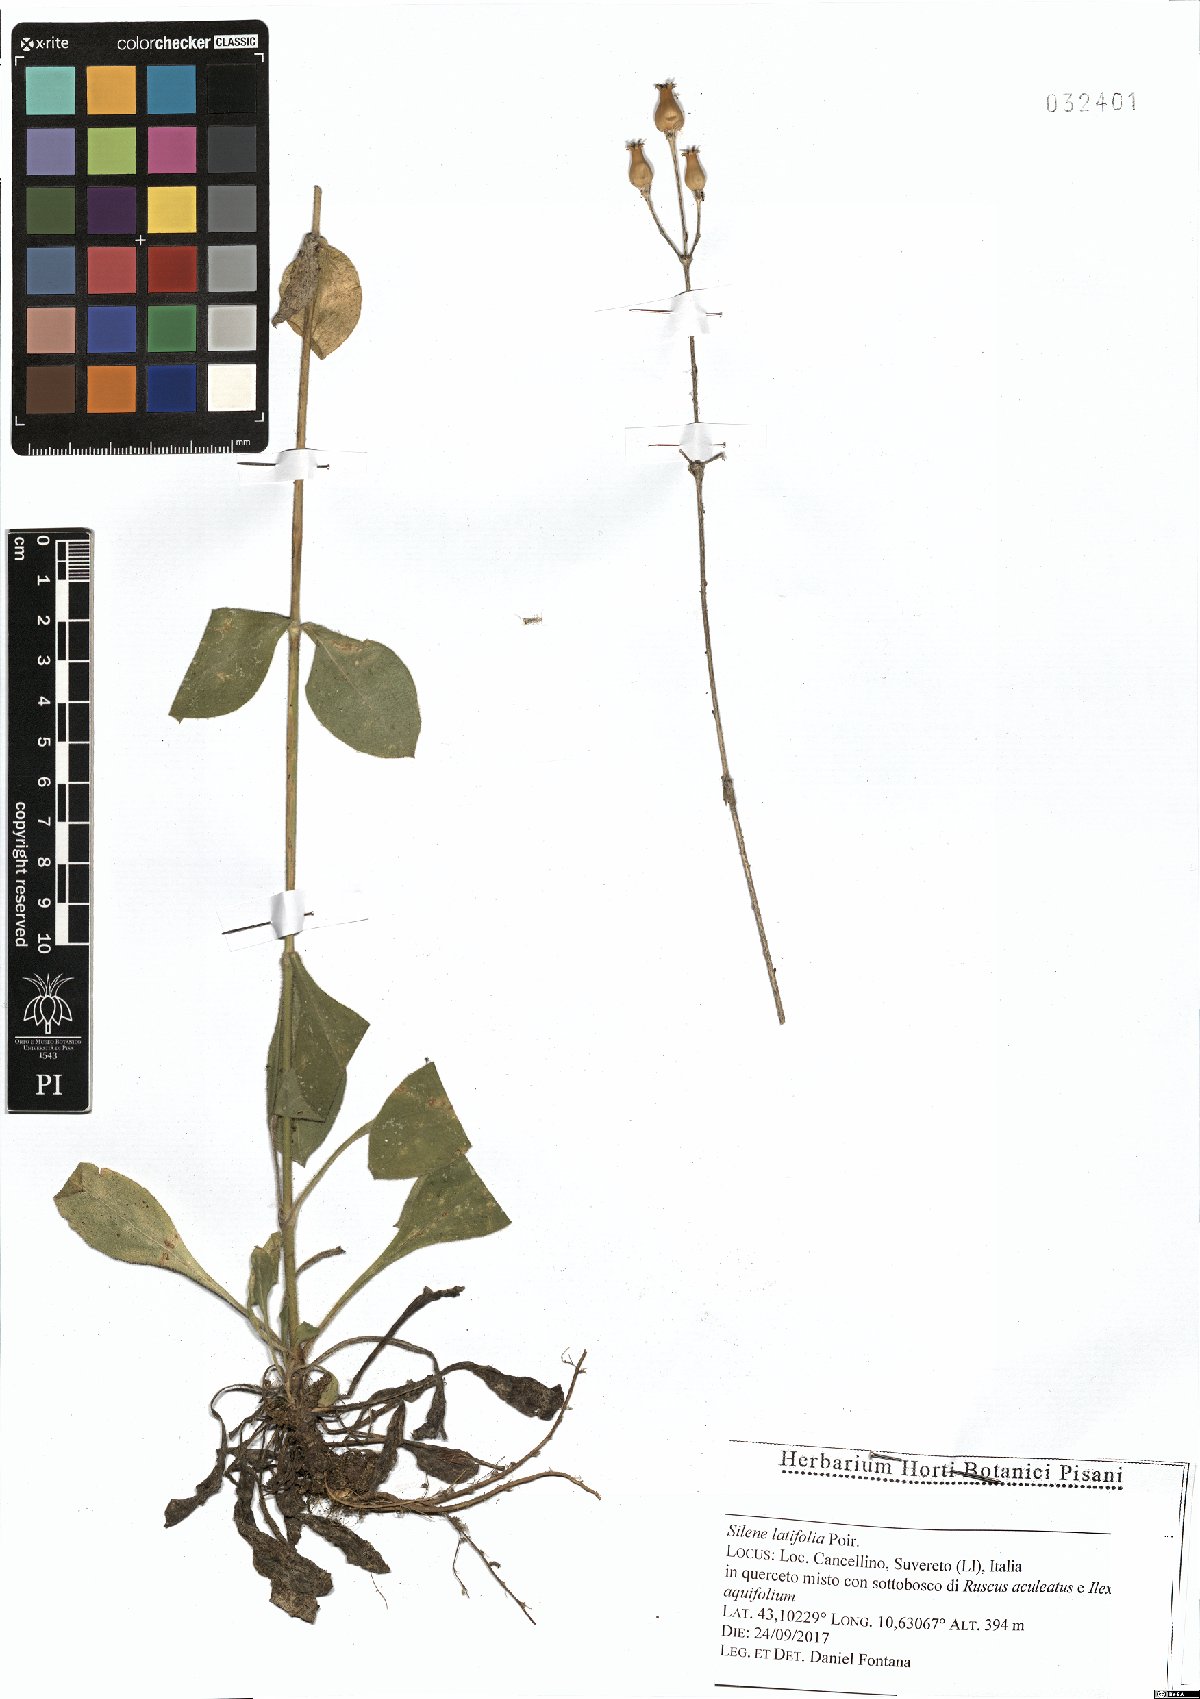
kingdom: Plantae
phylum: Tracheophyta
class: Magnoliopsida
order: Caryophyllales
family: Caryophyllaceae
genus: Silene
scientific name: Silene latifolia
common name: White campion
